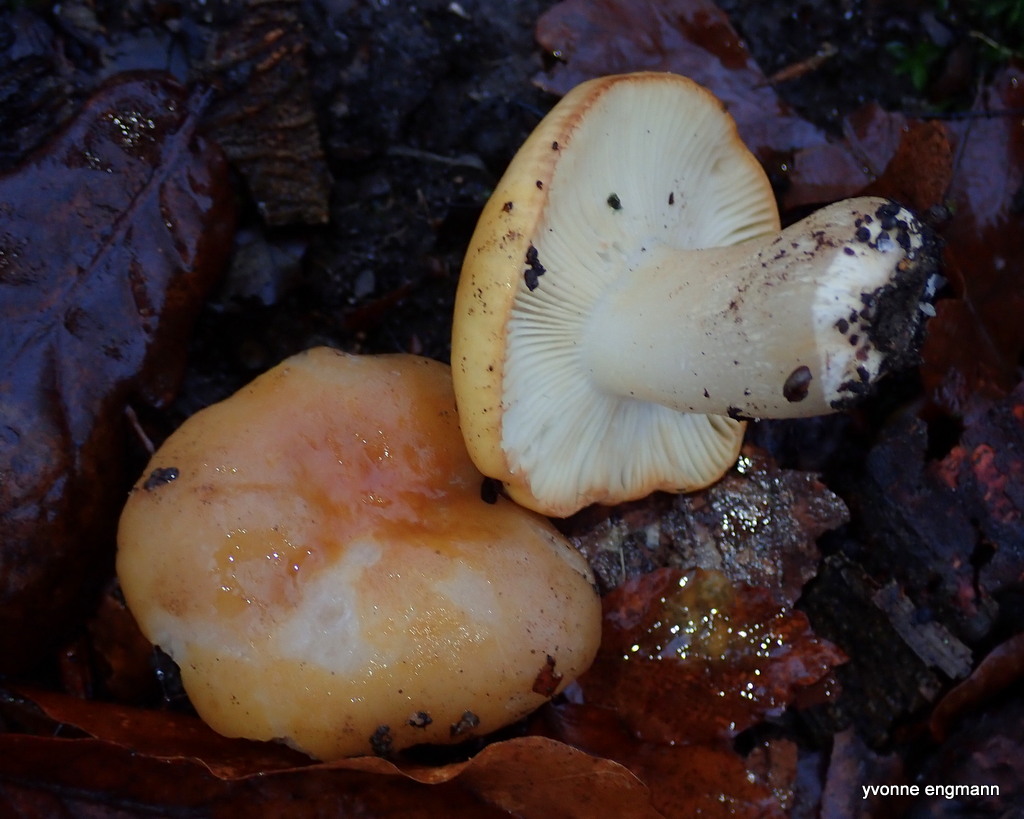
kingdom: Fungi
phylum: Basidiomycota
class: Agaricomycetes
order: Russulales
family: Russulaceae
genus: Russula
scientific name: Russula ochroleuca
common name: okkergul skørhat
